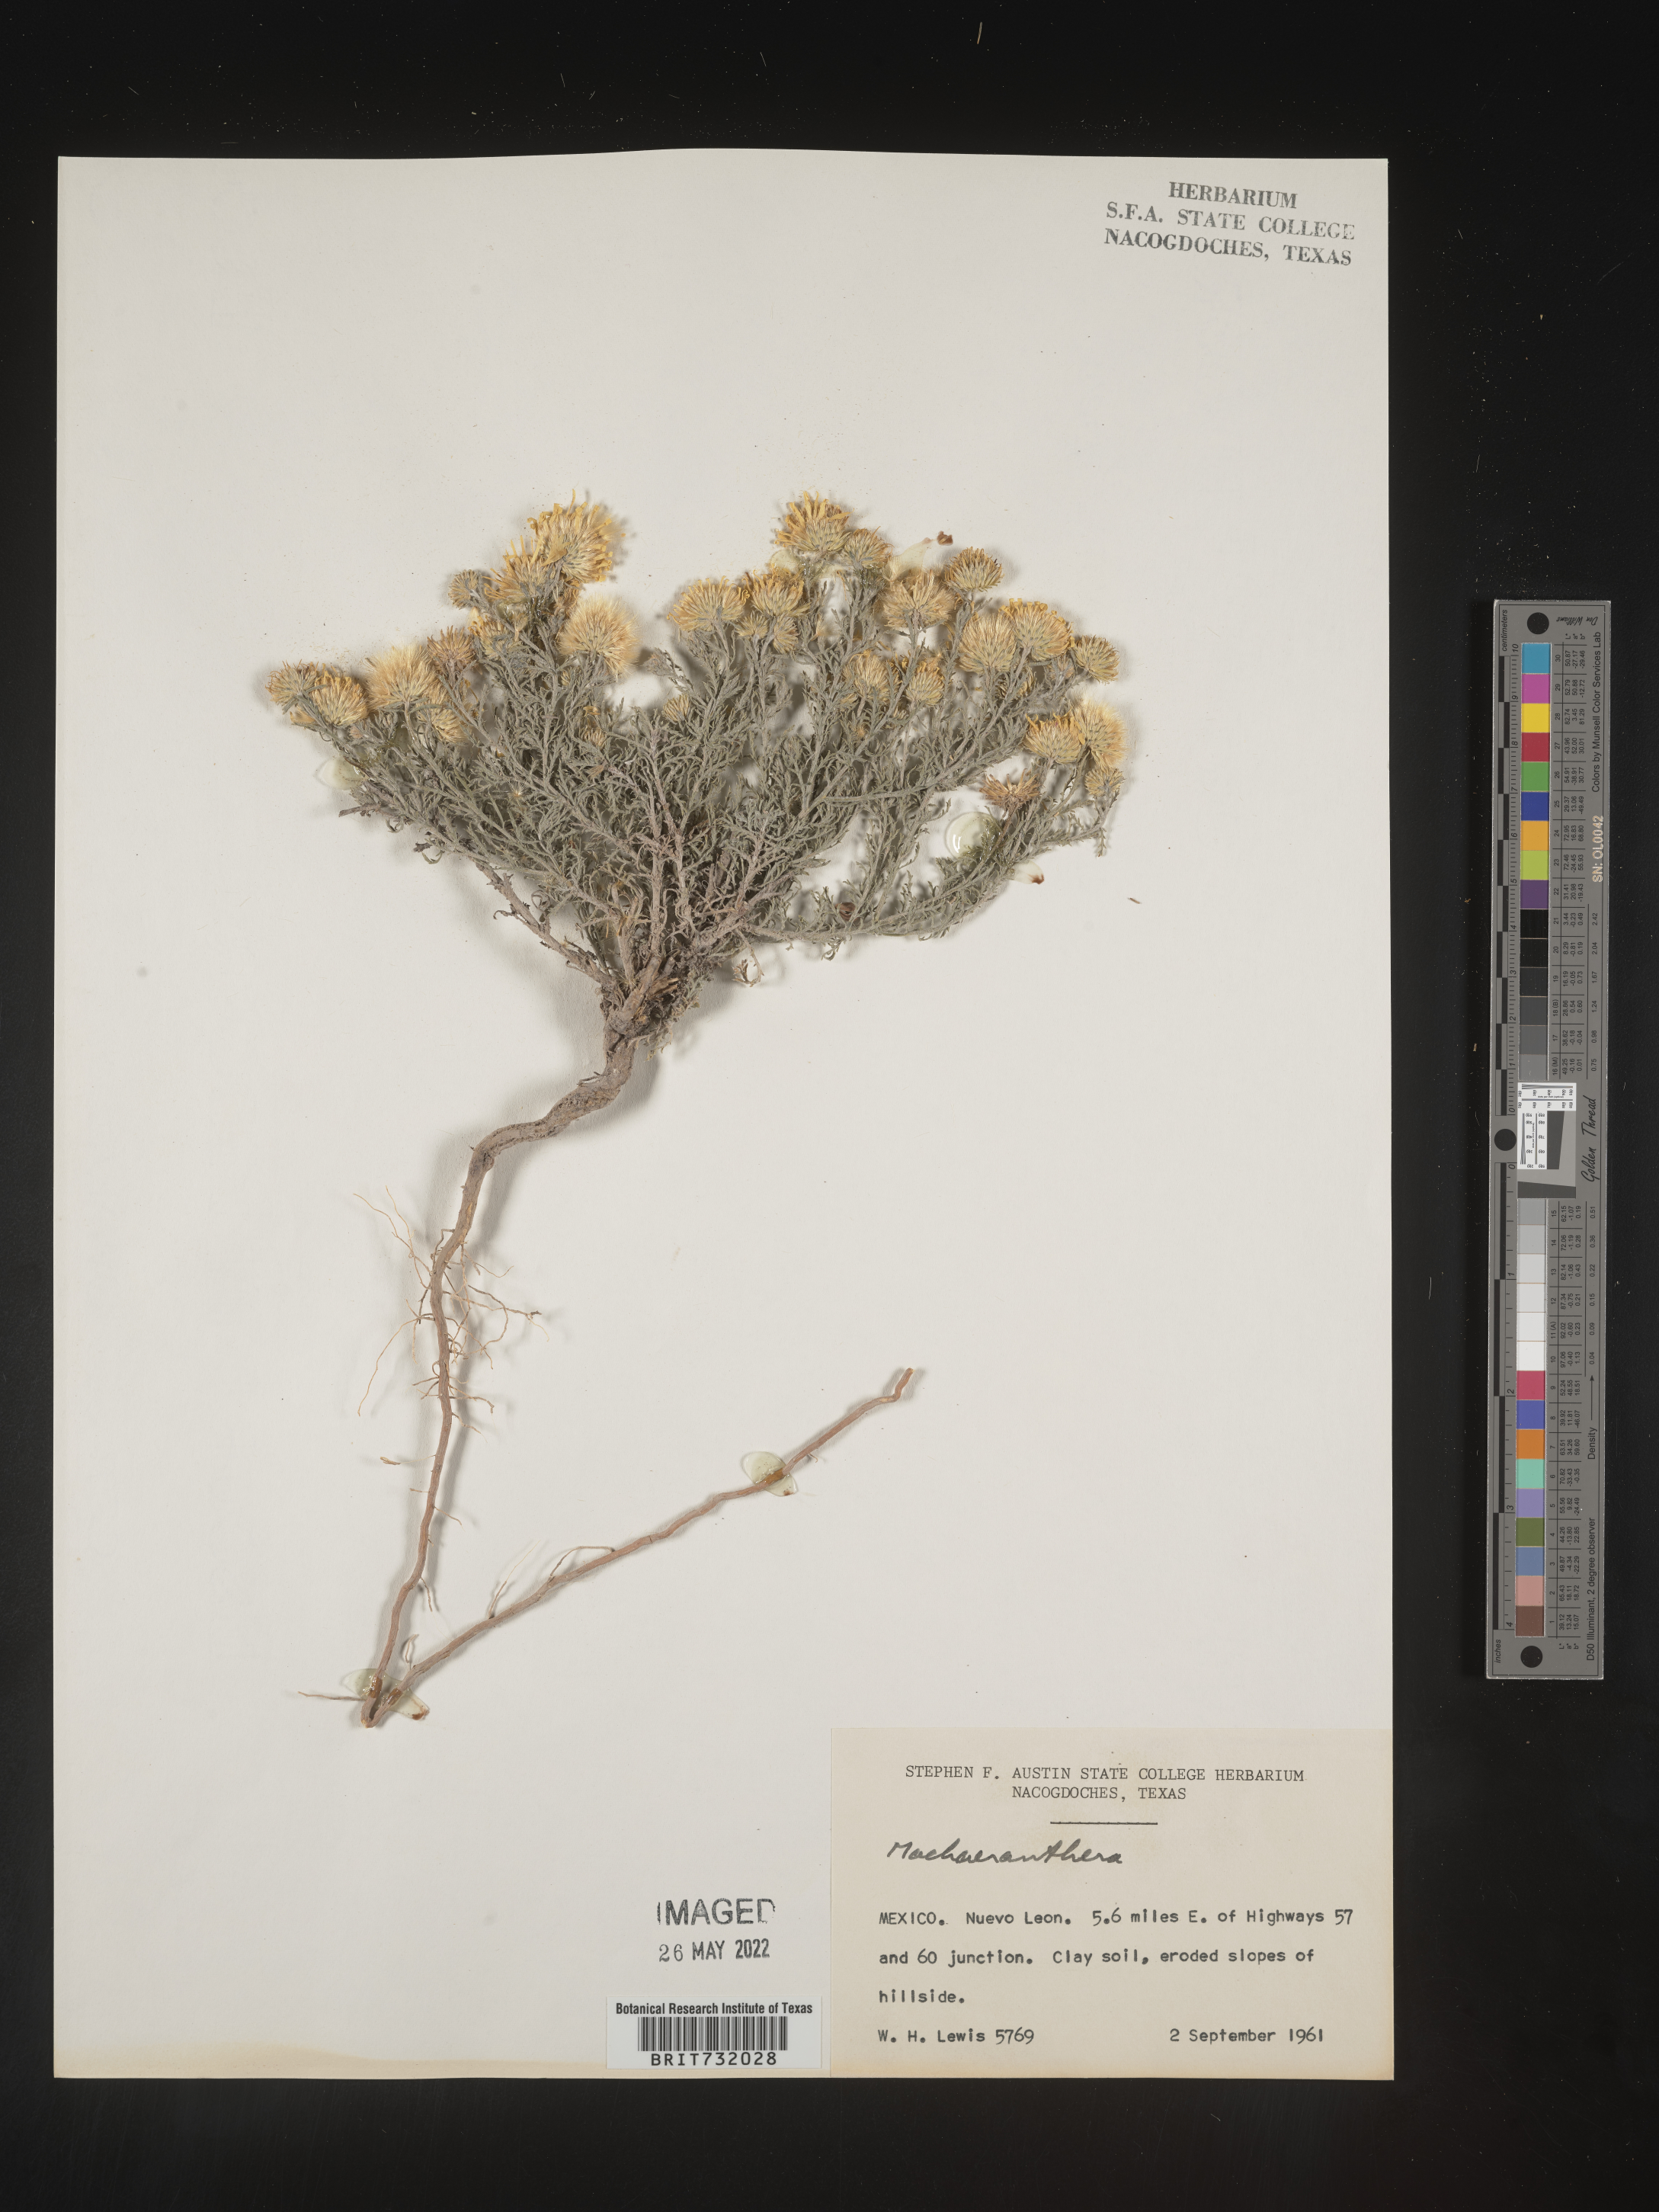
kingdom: Plantae
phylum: Tracheophyta
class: Magnoliopsida
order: Asterales
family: Asteraceae
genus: Machaeranthera
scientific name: Machaeranthera
